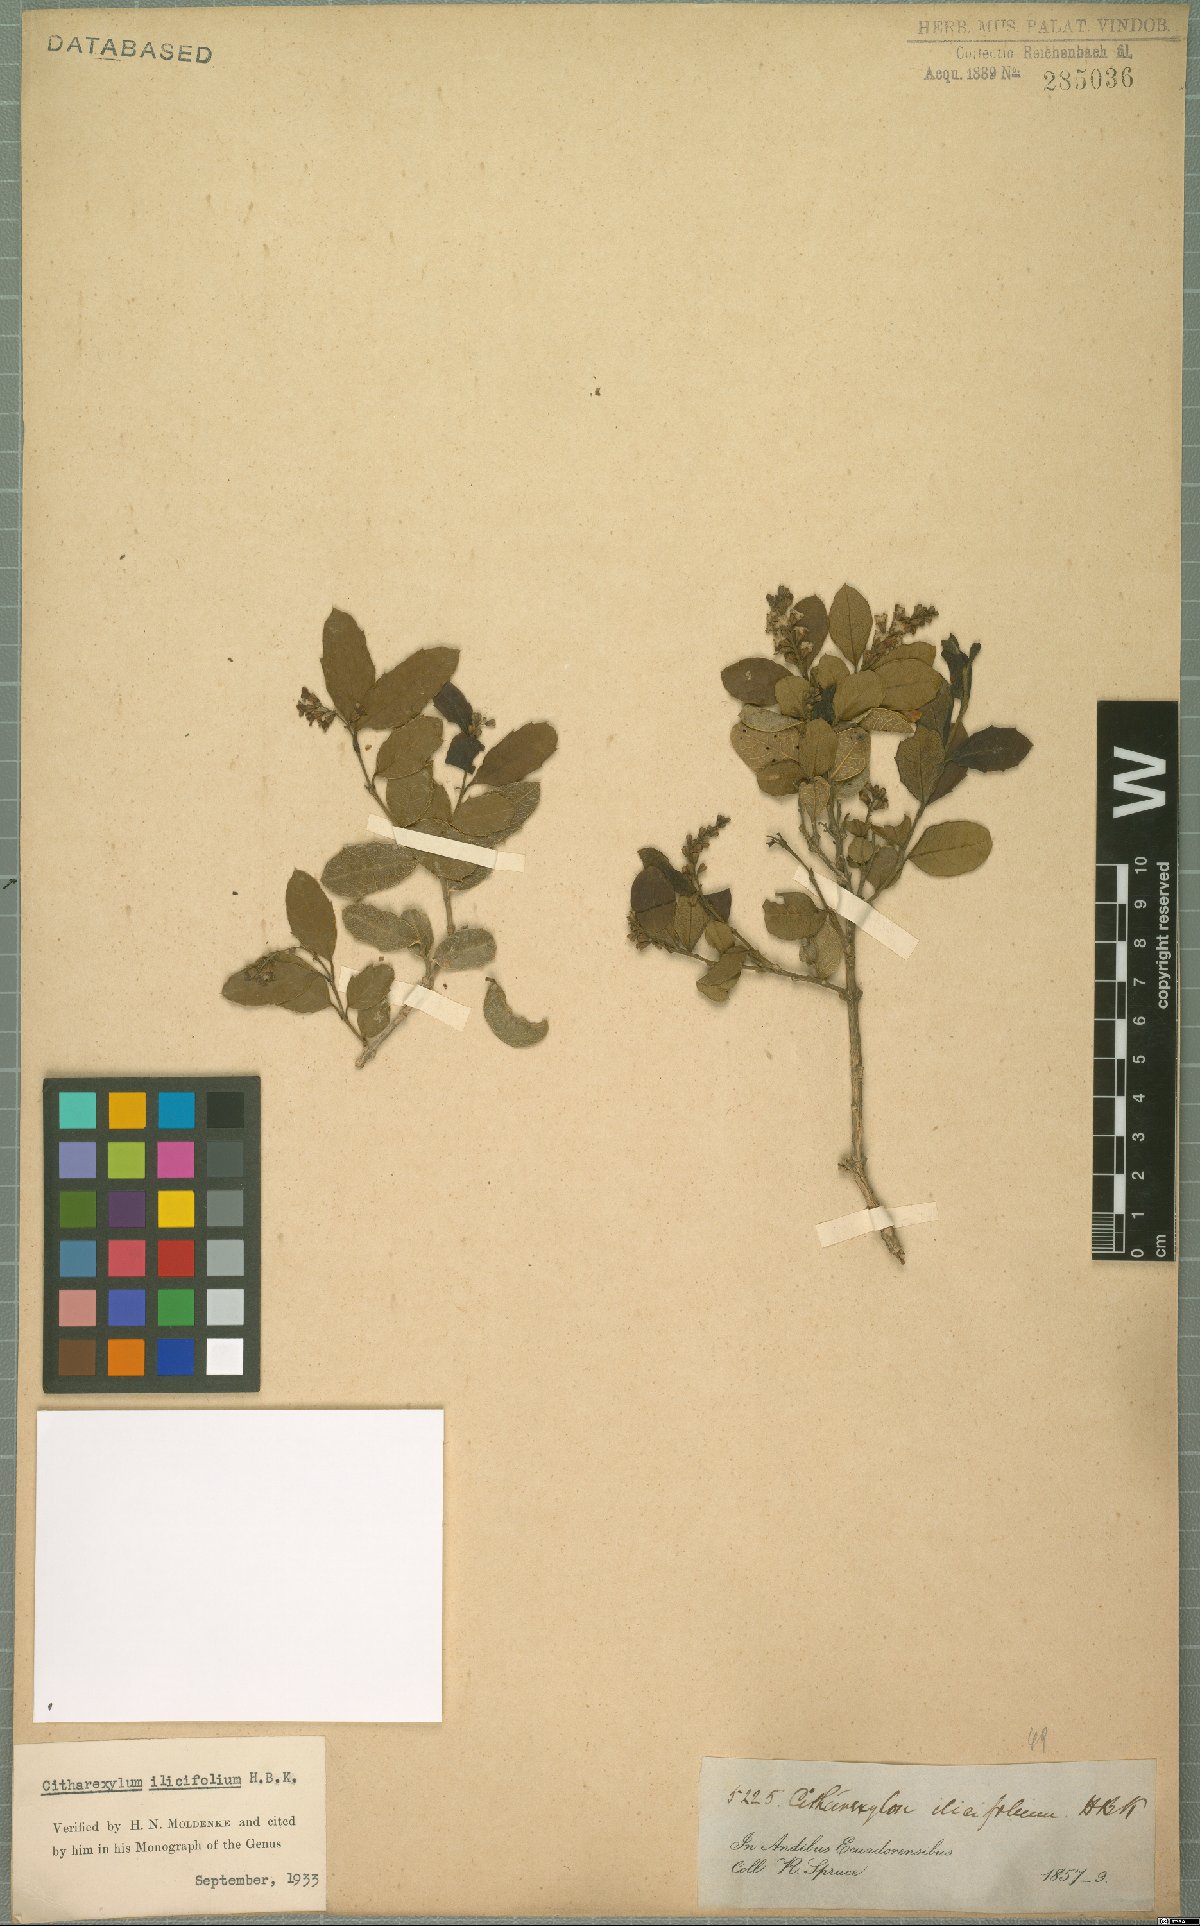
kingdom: Plantae
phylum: Tracheophyta
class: Magnoliopsida
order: Lamiales
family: Verbenaceae
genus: Citharexylum
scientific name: Citharexylum ilicifolium
